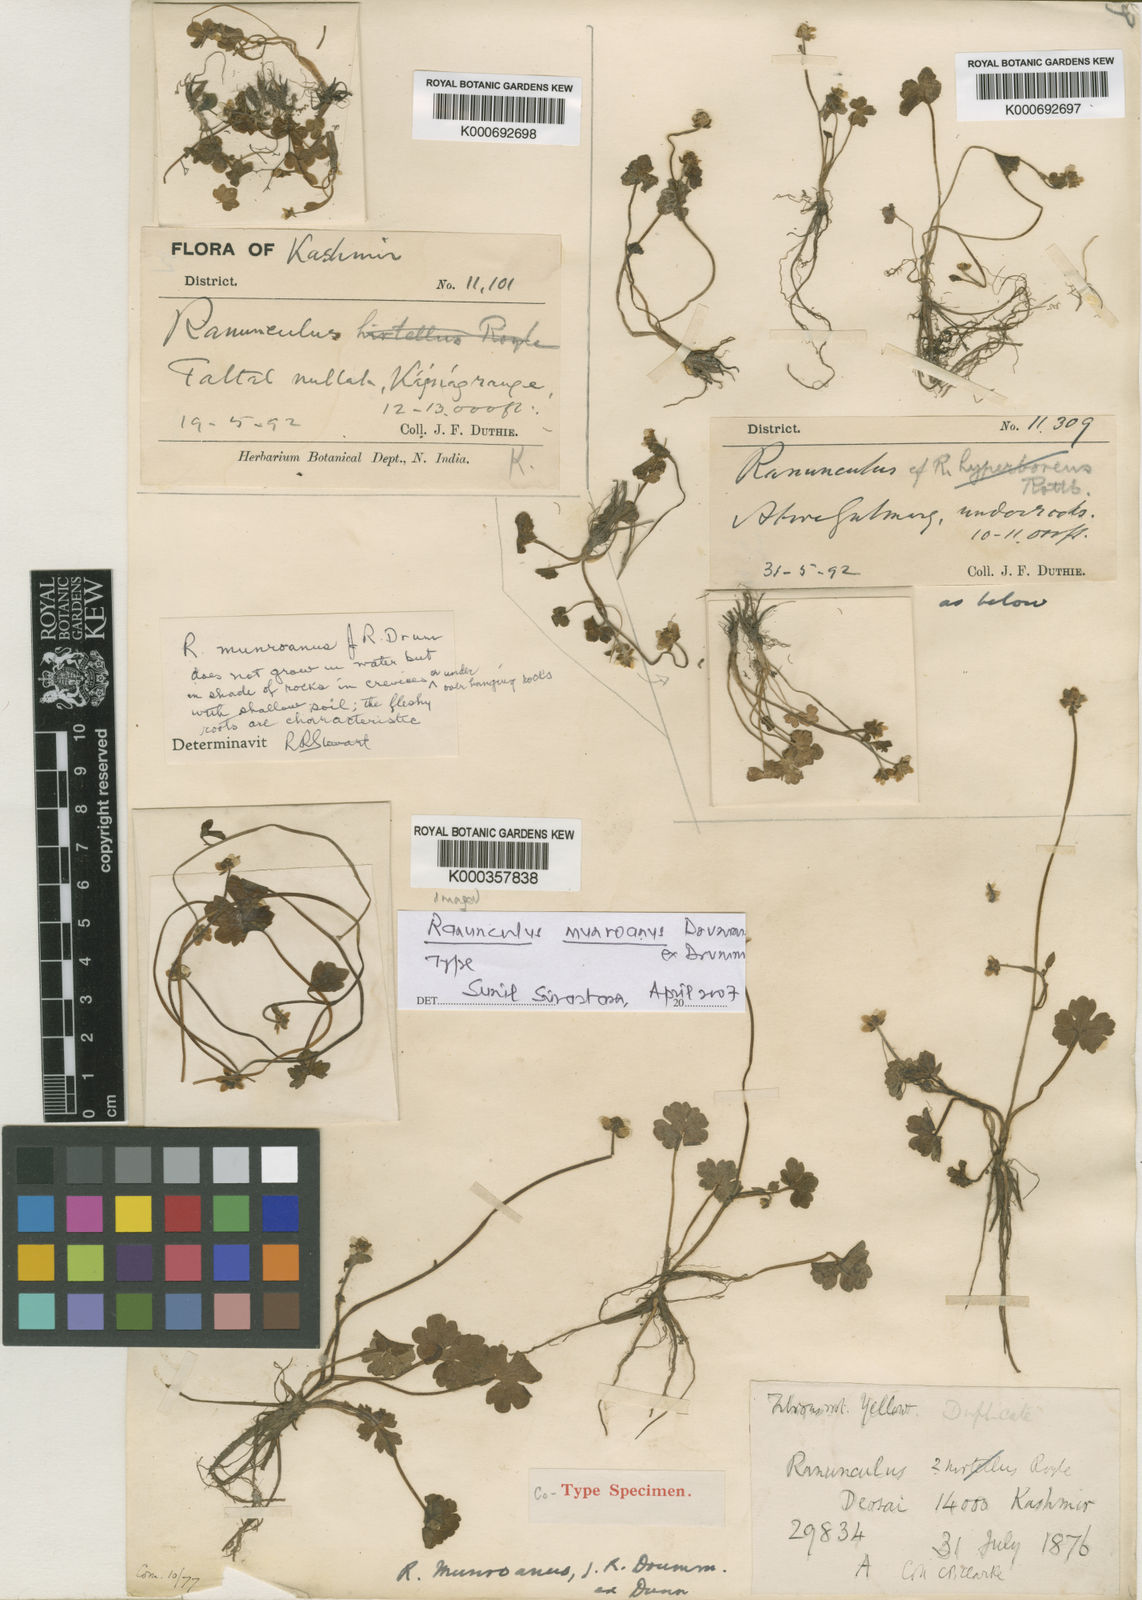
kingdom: Plantae
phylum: Tracheophyta
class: Magnoliopsida
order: Ranunculales
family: Ranunculaceae
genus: Ranunculus
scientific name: Ranunculus munroanus
